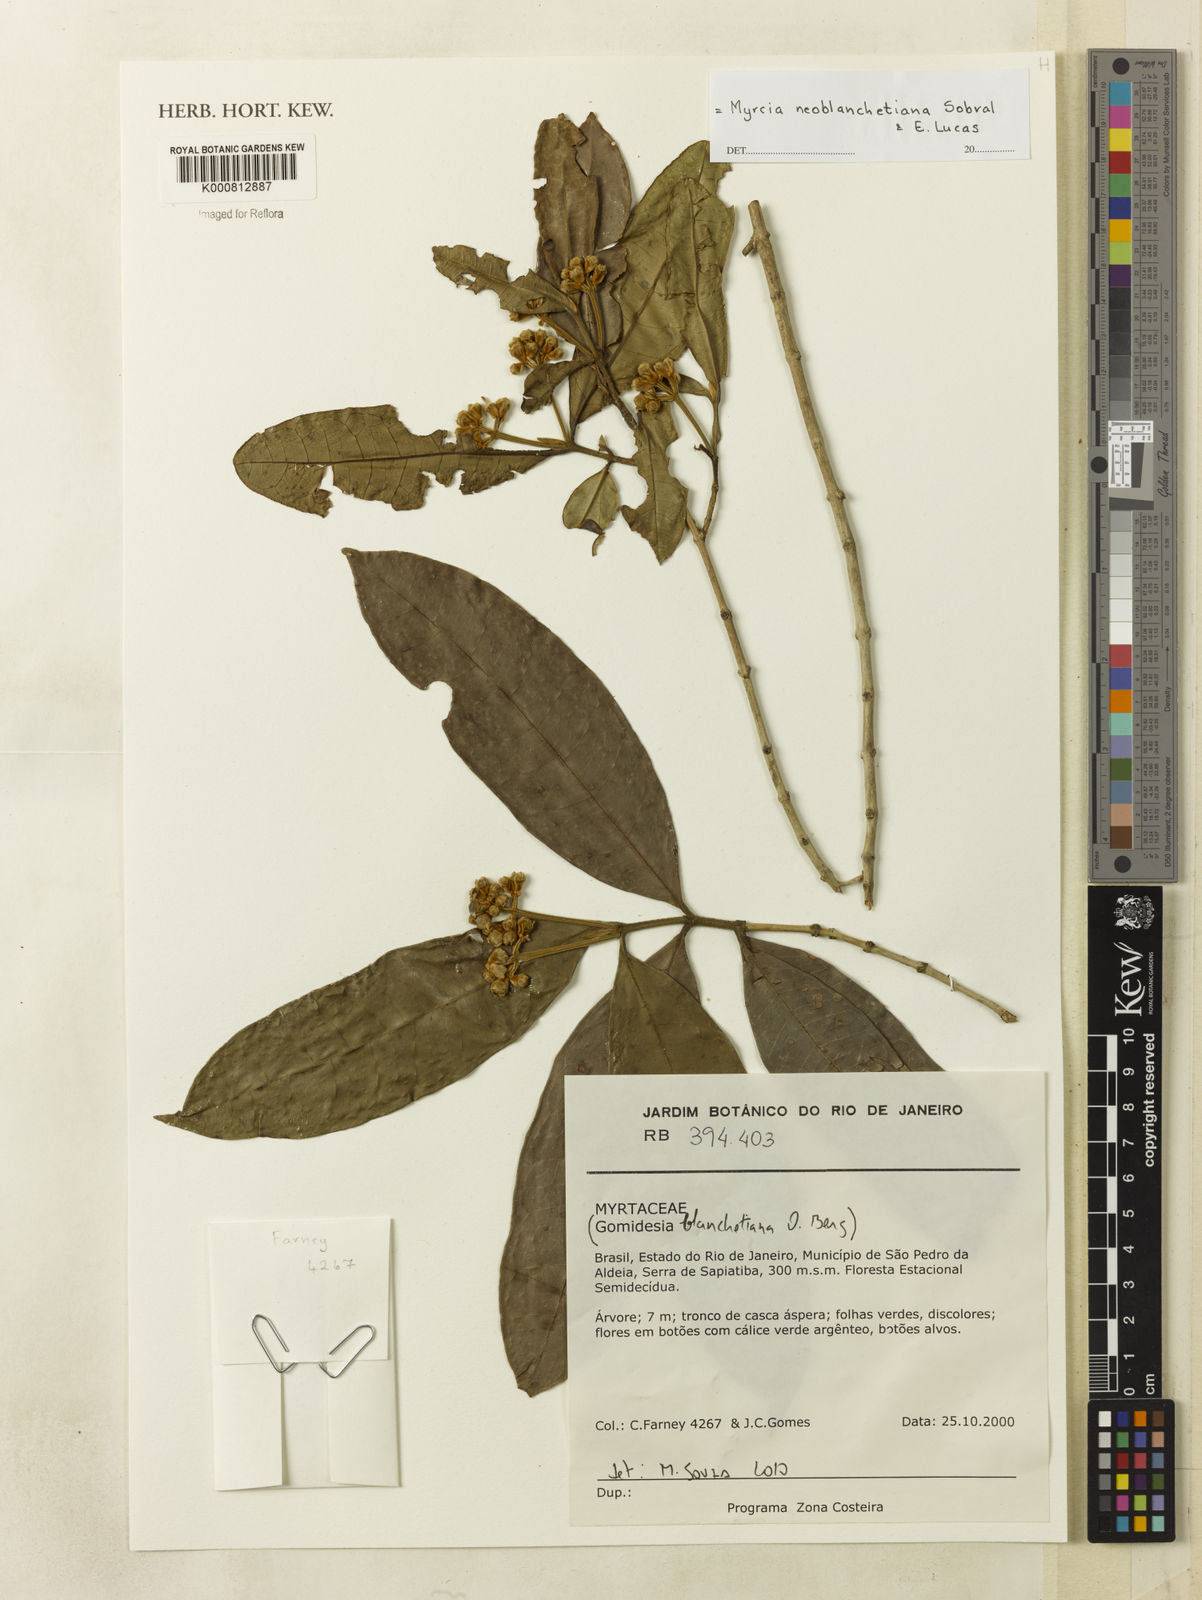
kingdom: Plantae
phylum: Tracheophyta
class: Magnoliopsida
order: Myrtales
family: Myrtaceae
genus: Myrcia
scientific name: Myrcia neoblanchetiana
